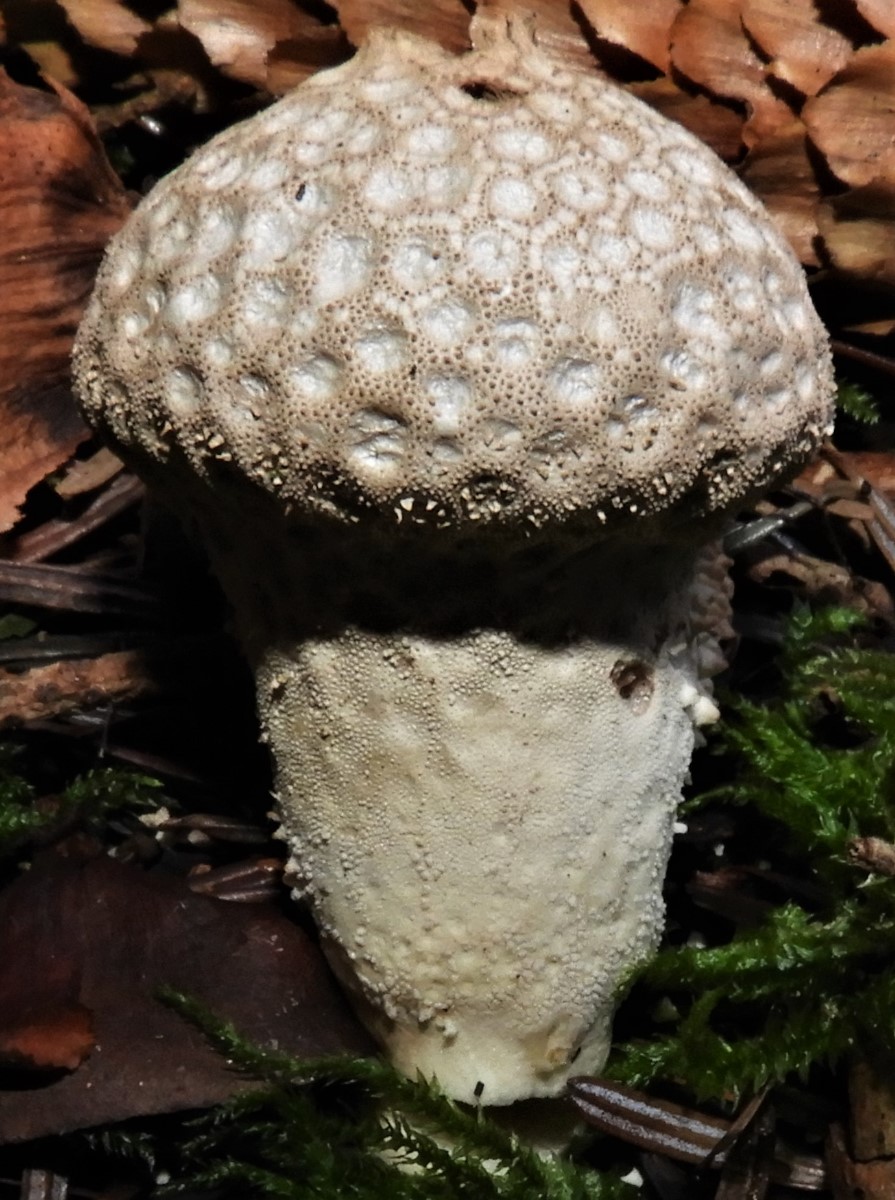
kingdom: Fungi
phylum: Basidiomycota
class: Agaricomycetes
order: Agaricales
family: Lycoperdaceae
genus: Lycoperdon
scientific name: Lycoperdon perlatum
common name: krystal-støvbold
